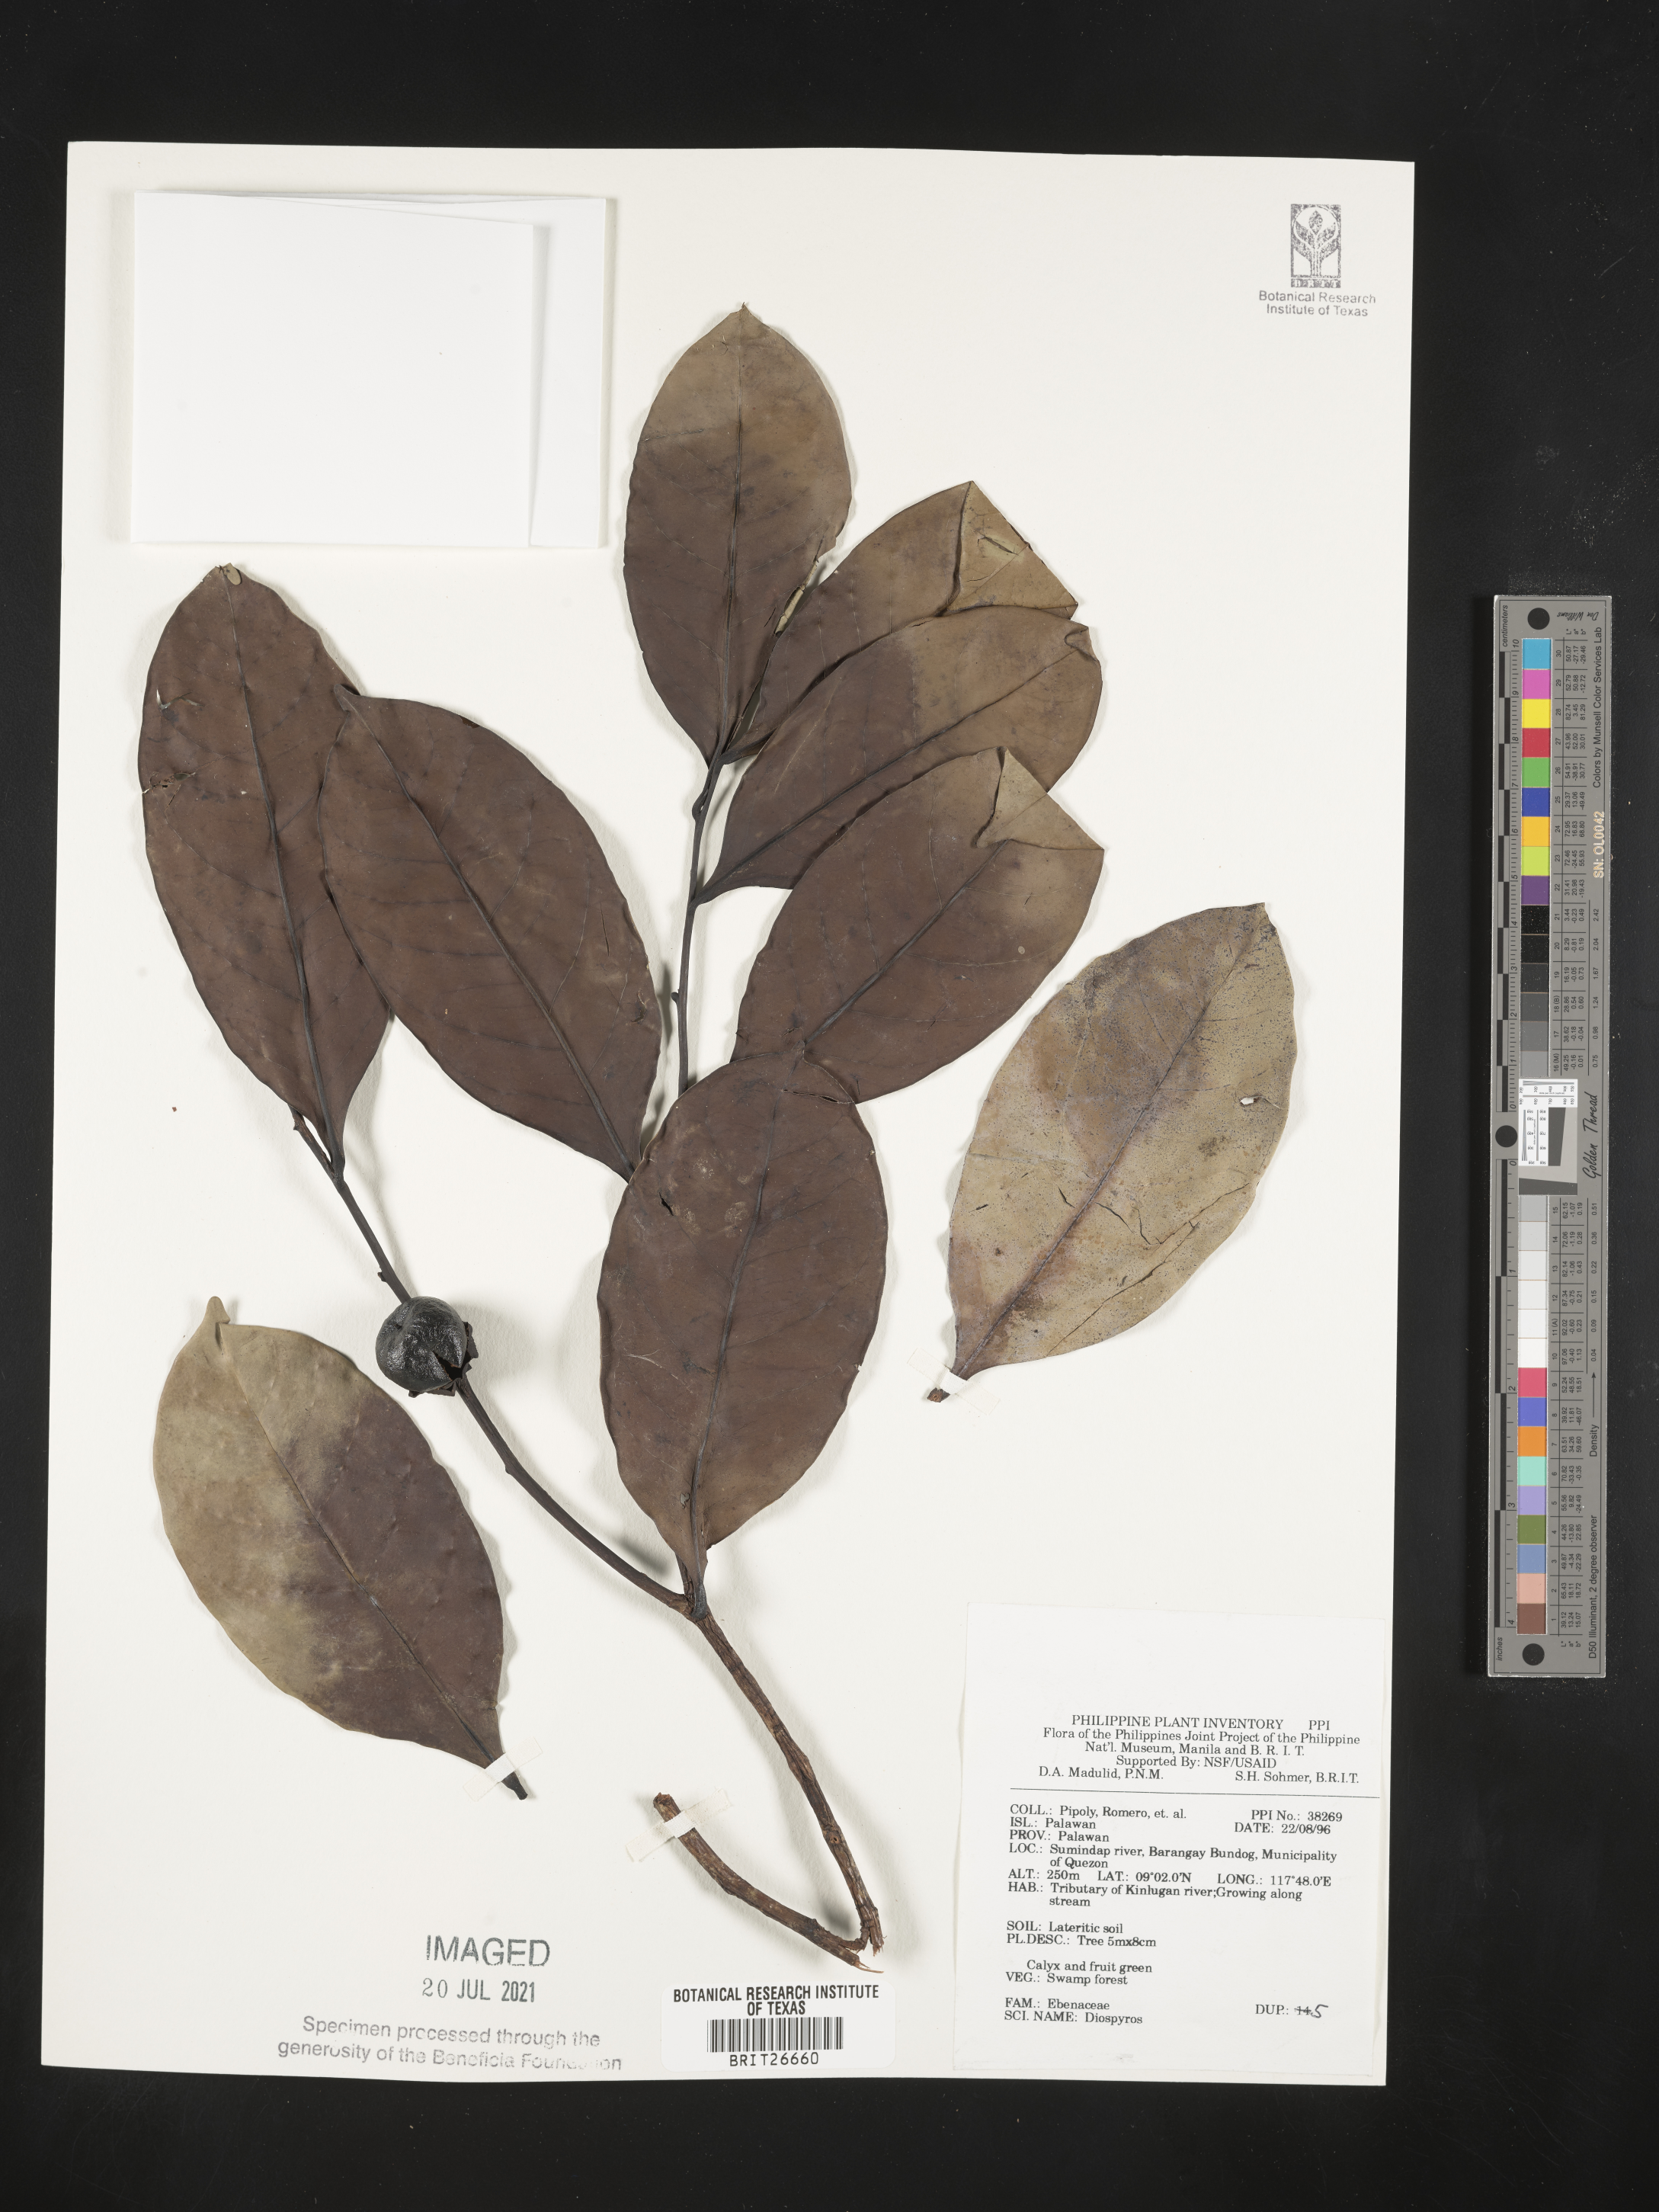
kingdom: Plantae
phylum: Tracheophyta
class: Magnoliopsida
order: Ericales
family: Ebenaceae
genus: Diospyros
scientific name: Diospyros
